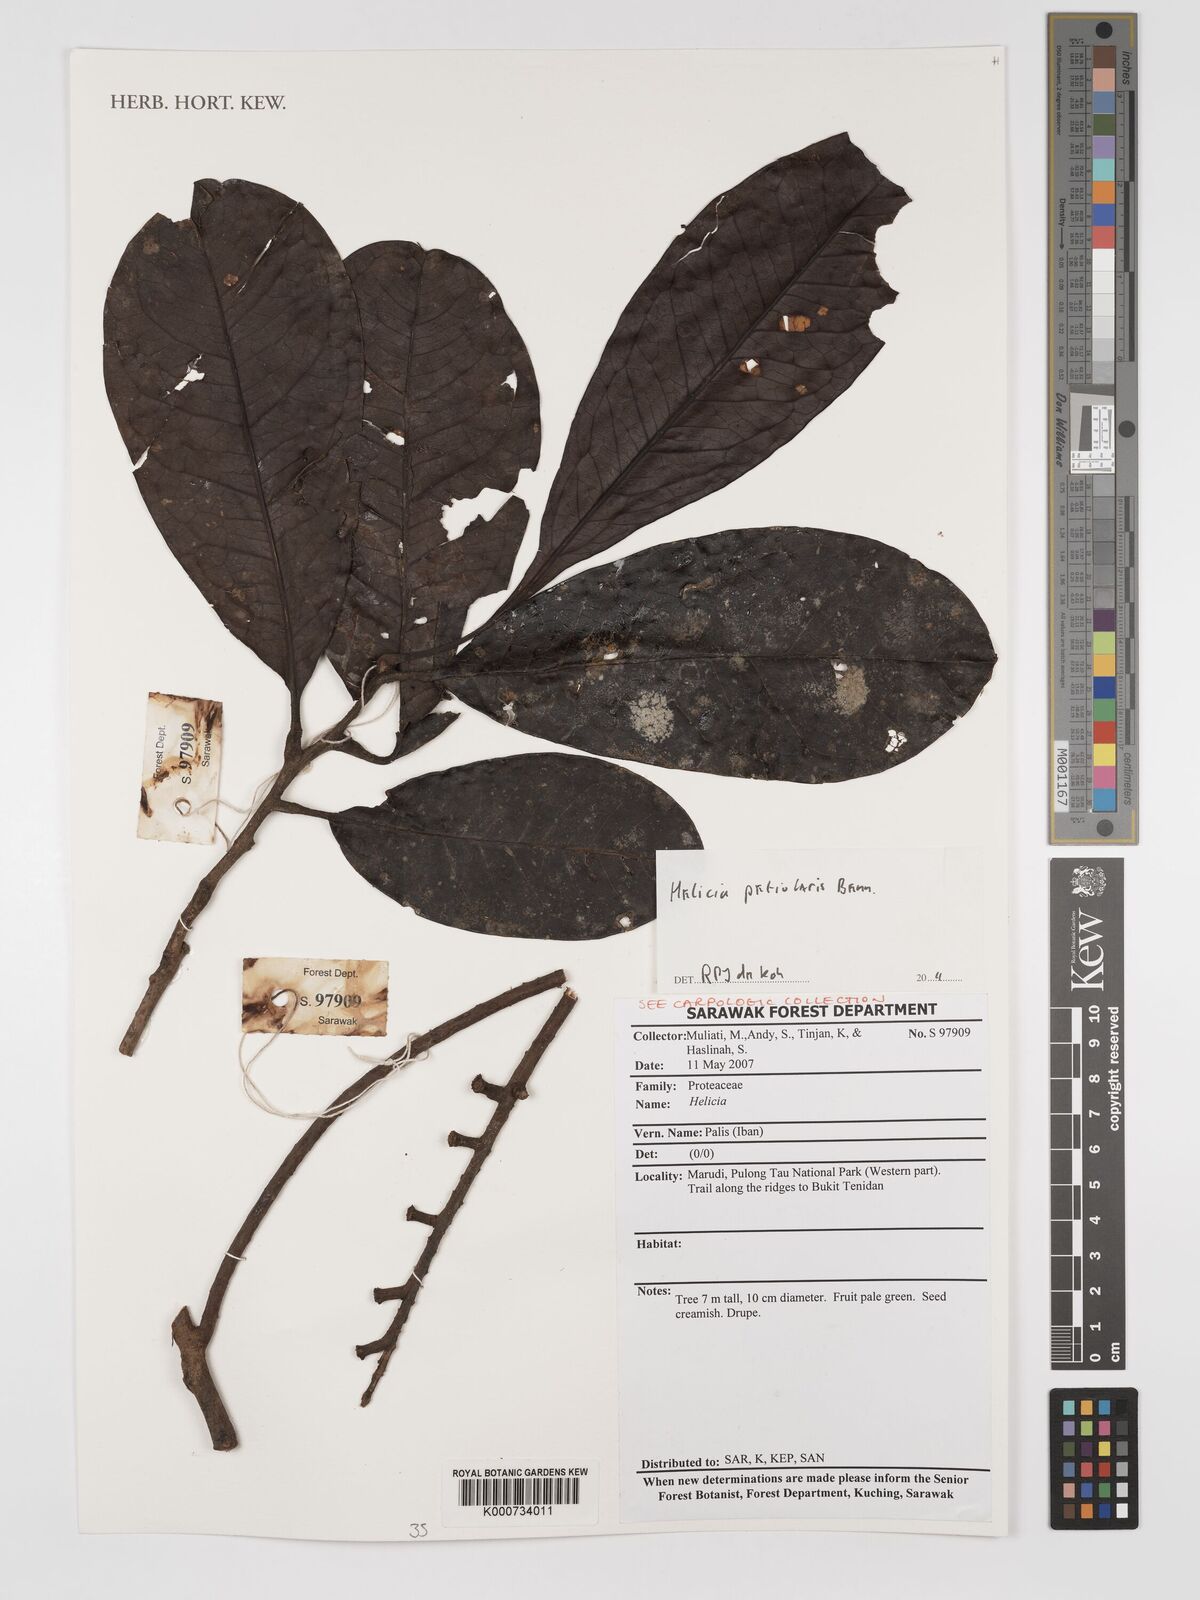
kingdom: Plantae
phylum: Tracheophyta
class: Magnoliopsida
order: Proteales
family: Proteaceae
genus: Helicia
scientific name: Helicia petiolaris
